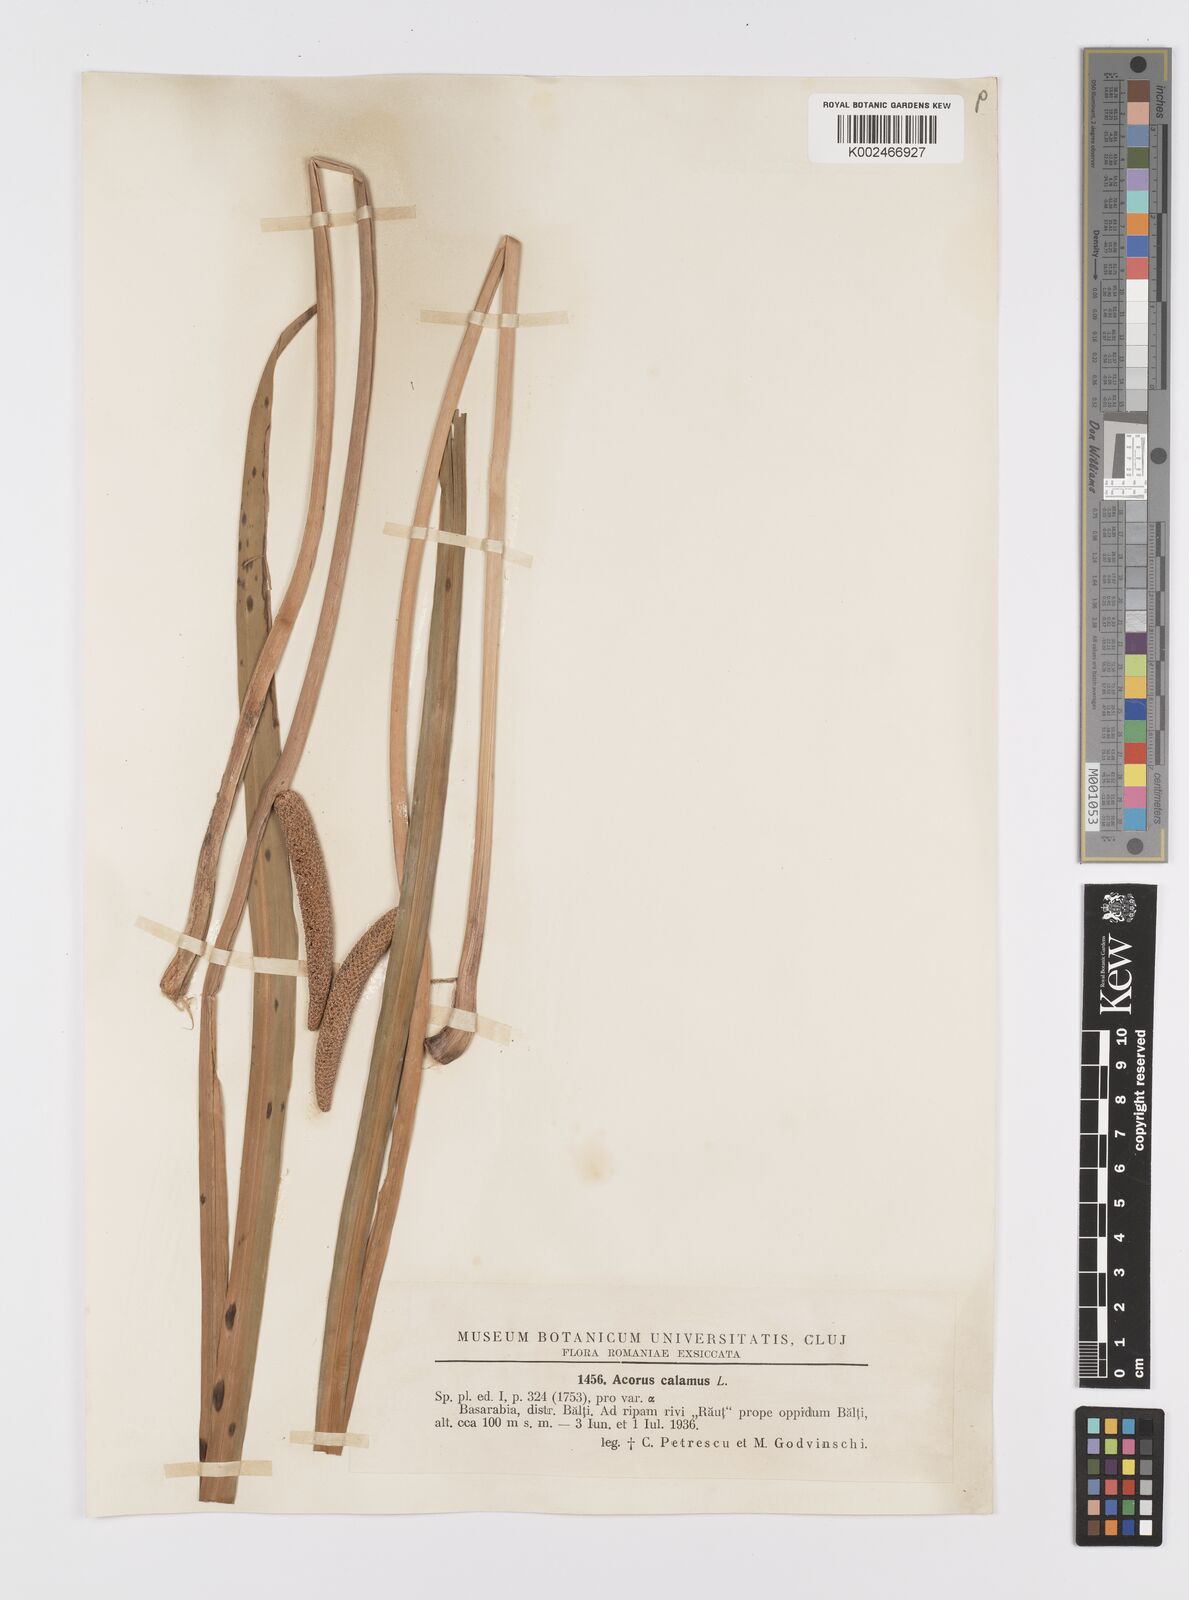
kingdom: Plantae
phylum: Tracheophyta
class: Liliopsida
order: Acorales
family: Acoraceae
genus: Acorus
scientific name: Acorus calamus
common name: Sweet-flag
